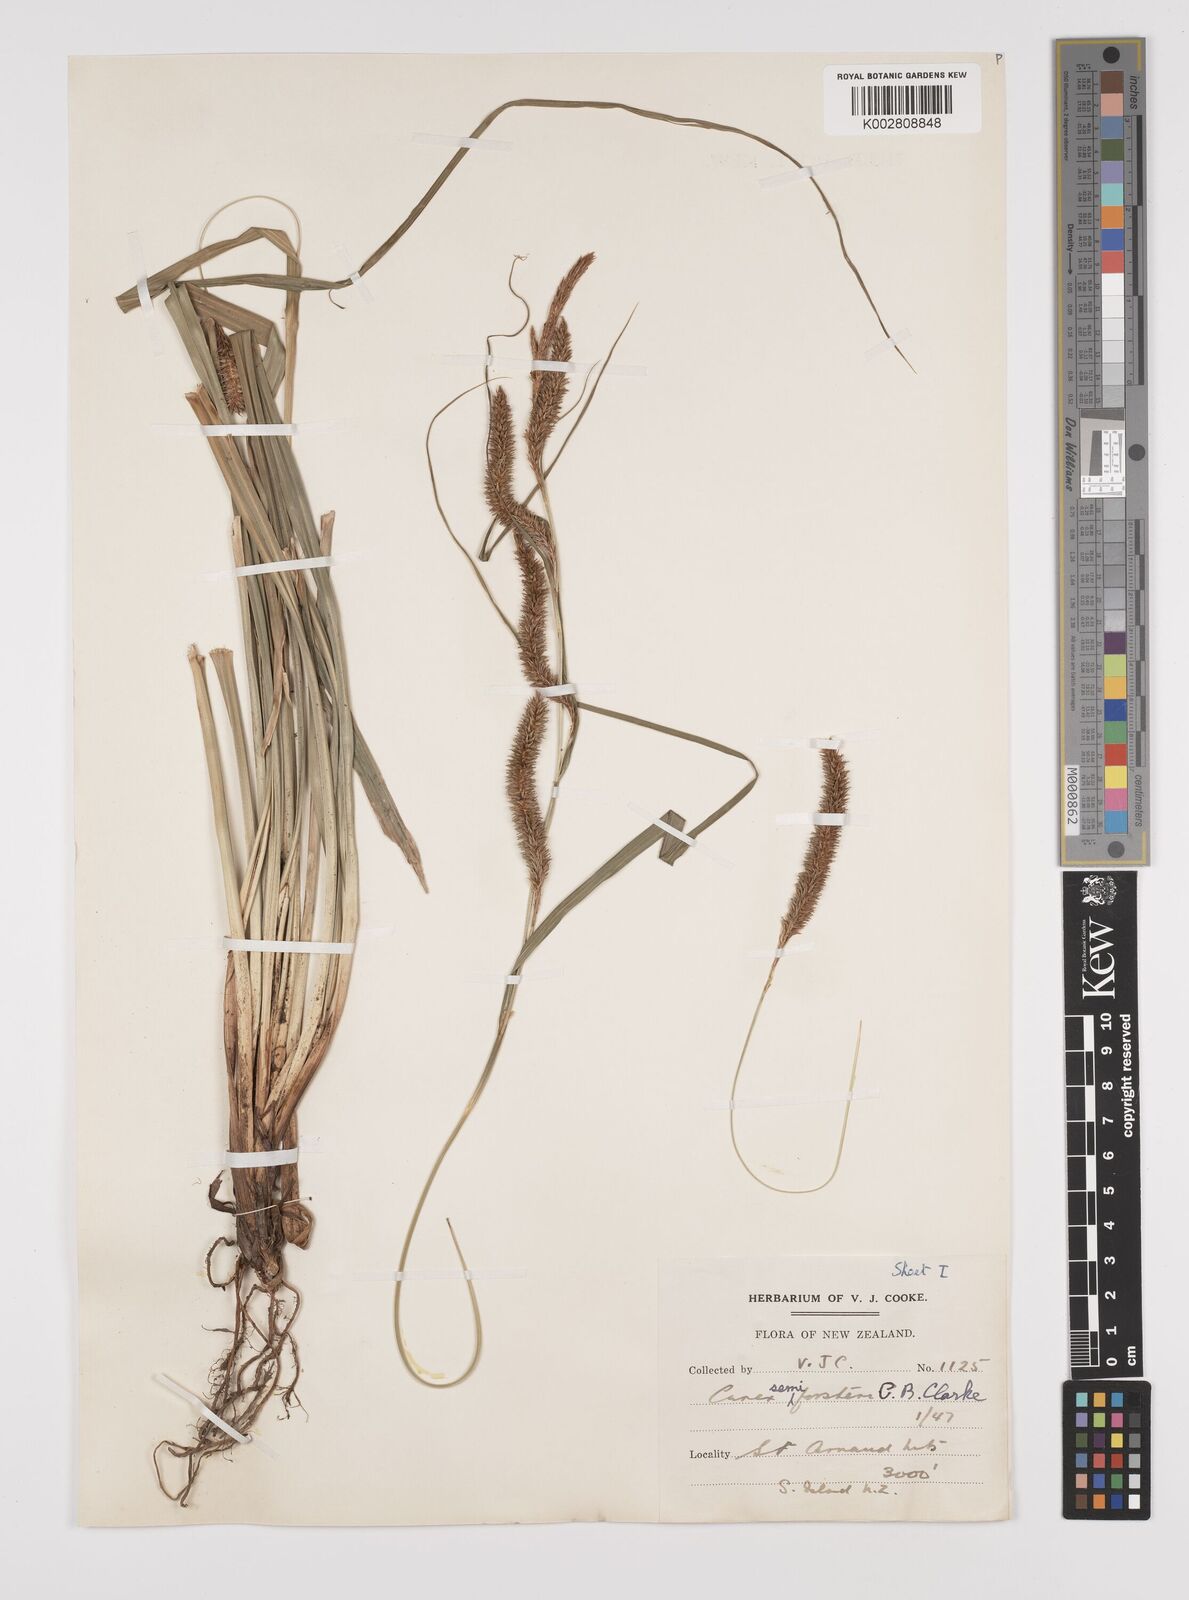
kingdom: Plantae
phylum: Tracheophyta
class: Liliopsida
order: Poales
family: Cyperaceae
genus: Carex
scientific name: Carex forsteri
